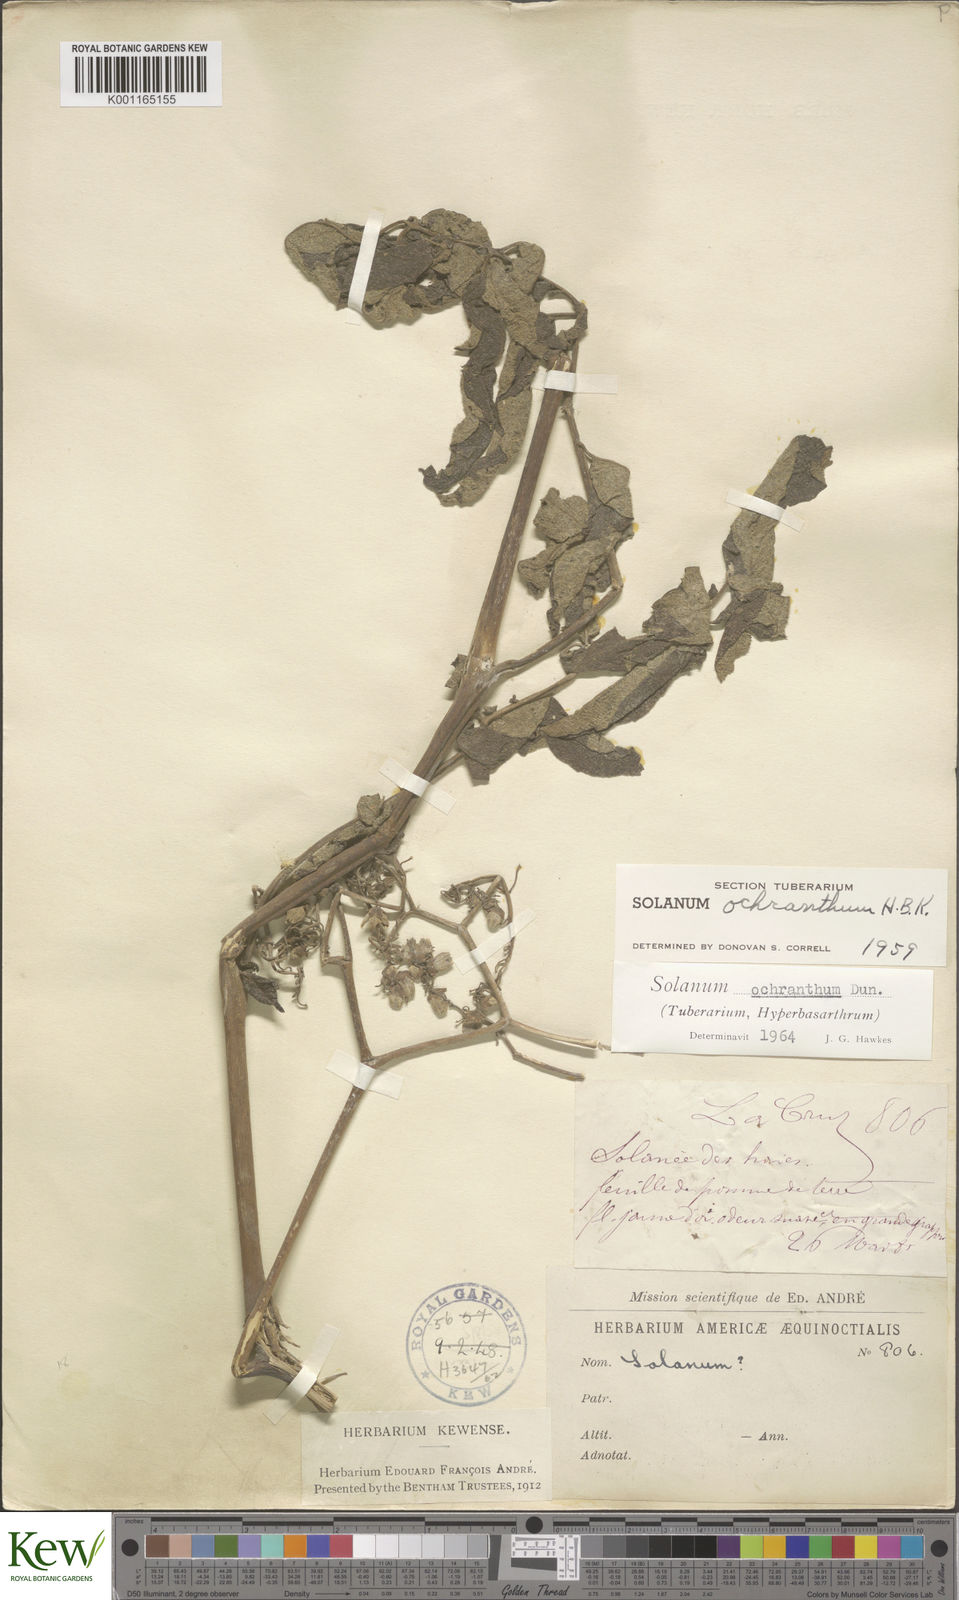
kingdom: Plantae
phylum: Tracheophyta
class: Magnoliopsida
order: Solanales
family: Solanaceae
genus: Solanum
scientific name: Solanum ochranthum
